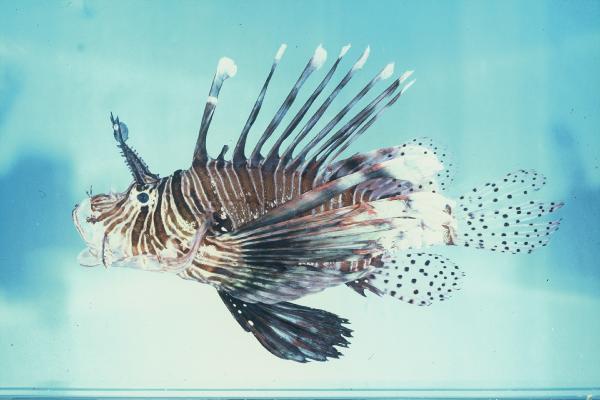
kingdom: Animalia
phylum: Chordata
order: Scorpaeniformes
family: Scorpaenidae
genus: Pterois
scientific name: Pterois miles
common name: Devil firefish
